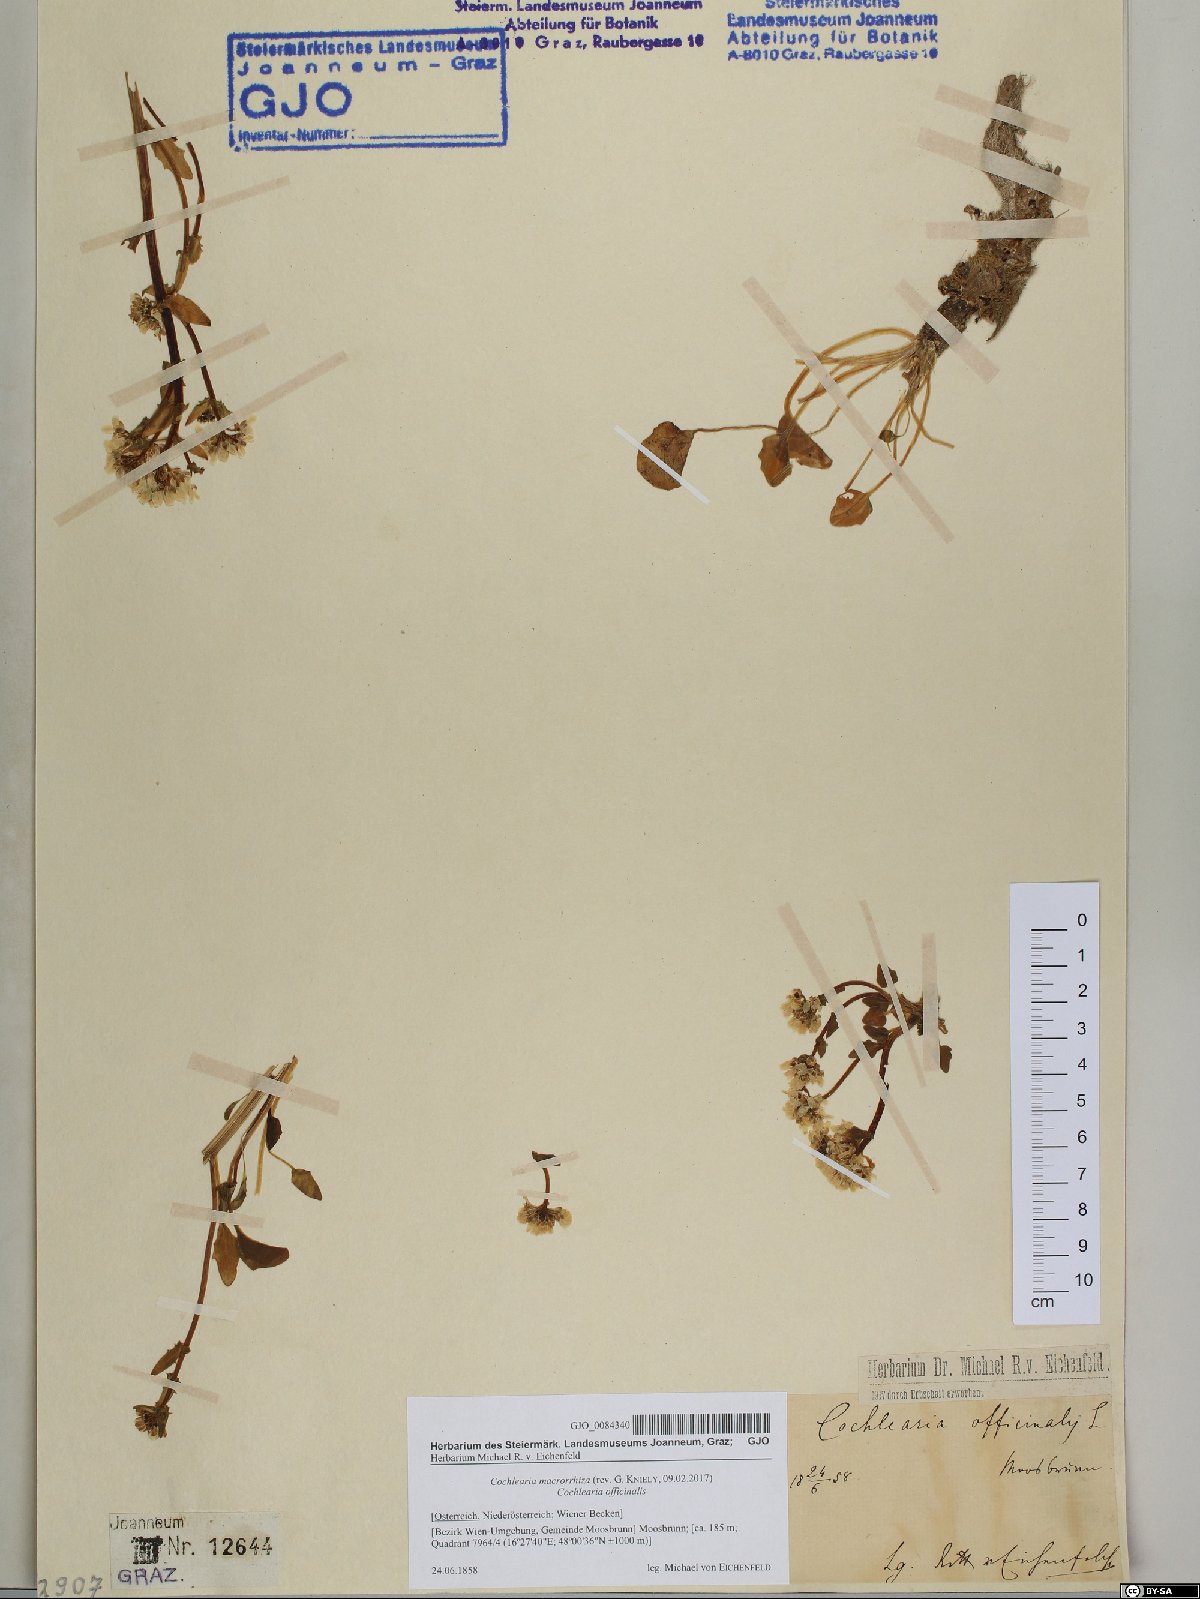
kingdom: Plantae
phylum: Tracheophyta
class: Magnoliopsida
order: Brassicales
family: Brassicaceae
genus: Cochlearia
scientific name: Cochlearia pyrenaica
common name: Upland scurvy-grass
